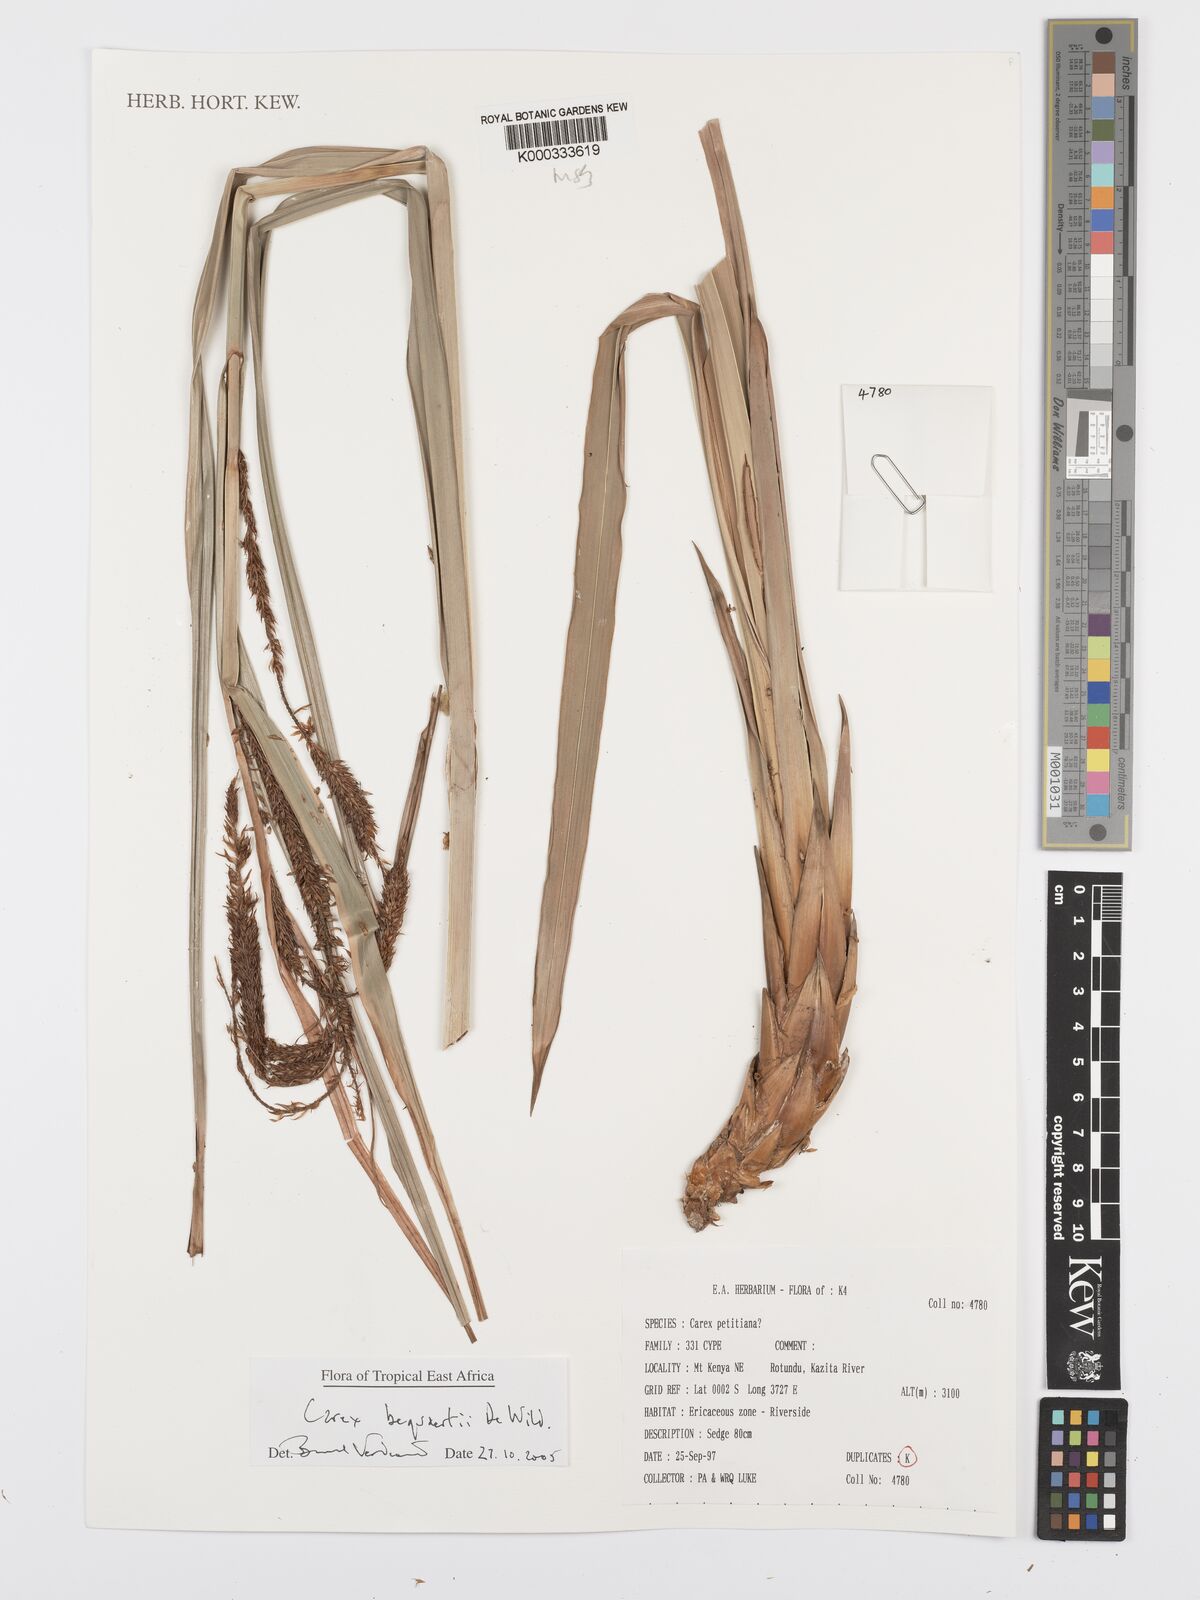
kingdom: Plantae
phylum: Tracheophyta
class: Liliopsida
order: Poales
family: Cyperaceae
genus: Carex
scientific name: Carex bequaertii
